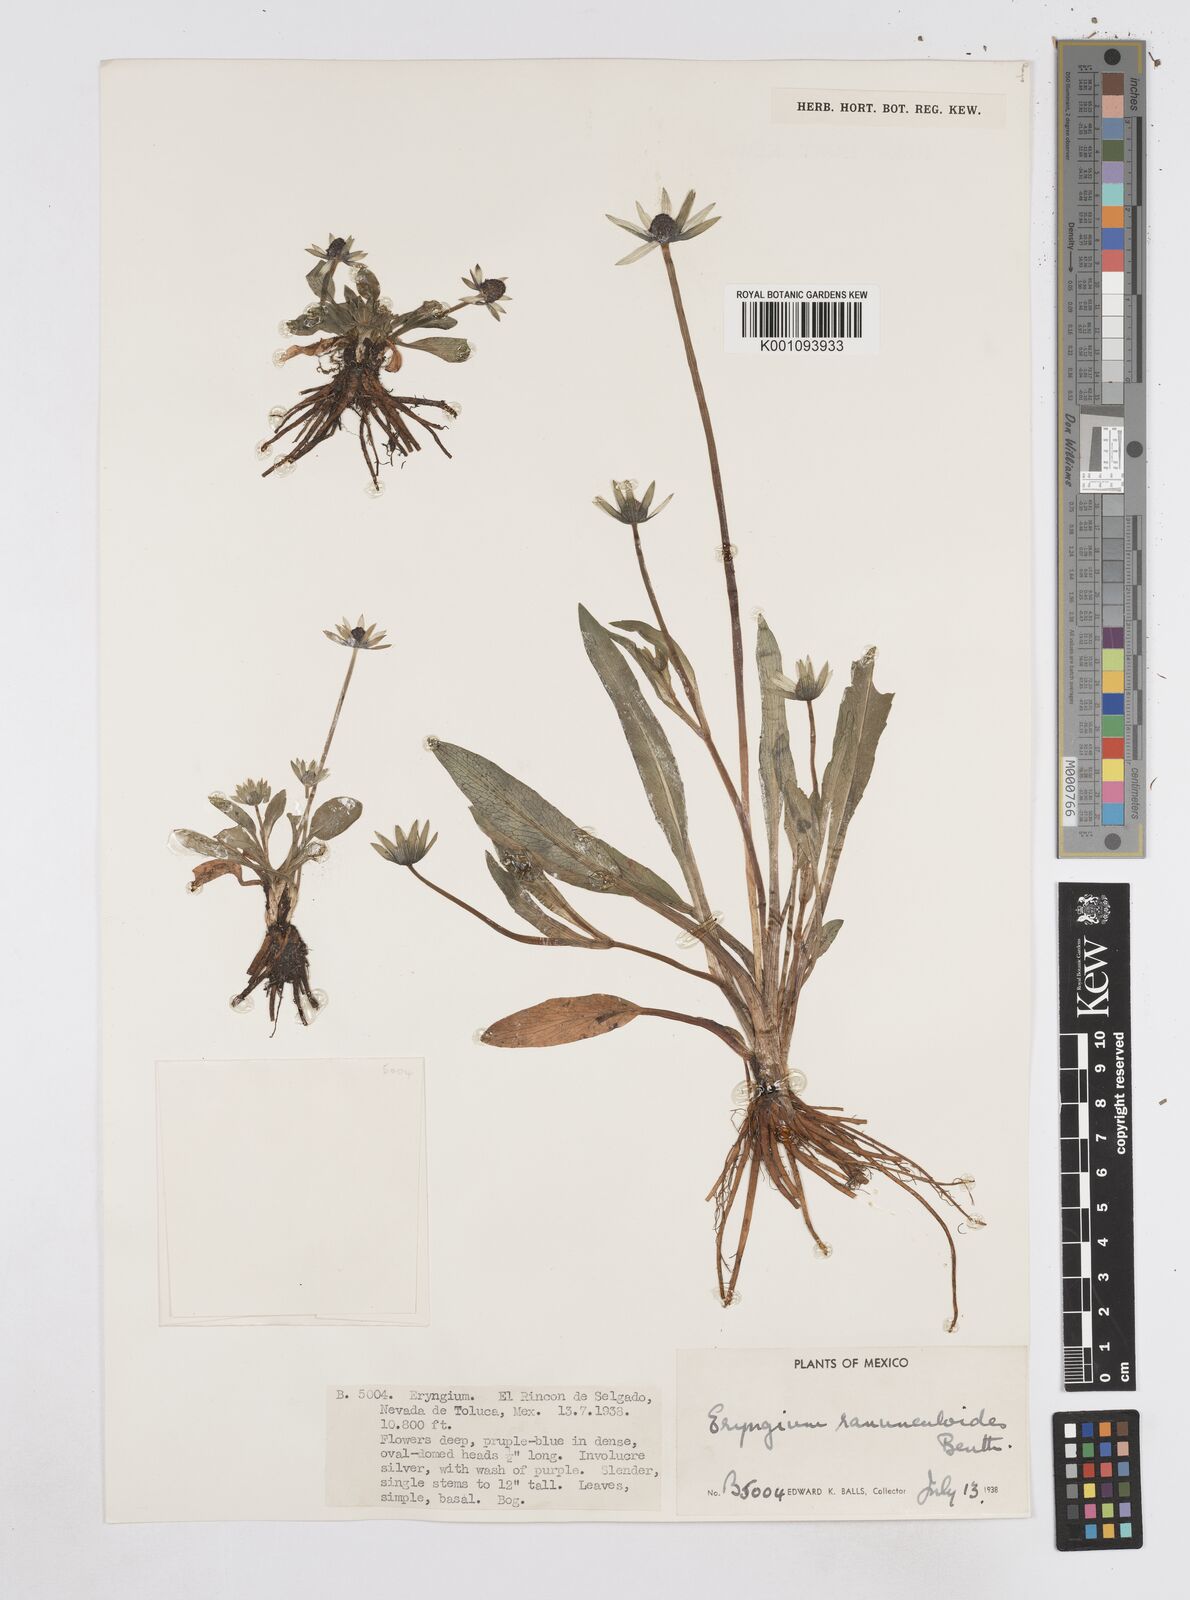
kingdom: Plantae
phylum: Tracheophyta
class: Magnoliopsida
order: Apiales
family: Apiaceae
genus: Eryngium
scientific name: Eryngium subacaule
